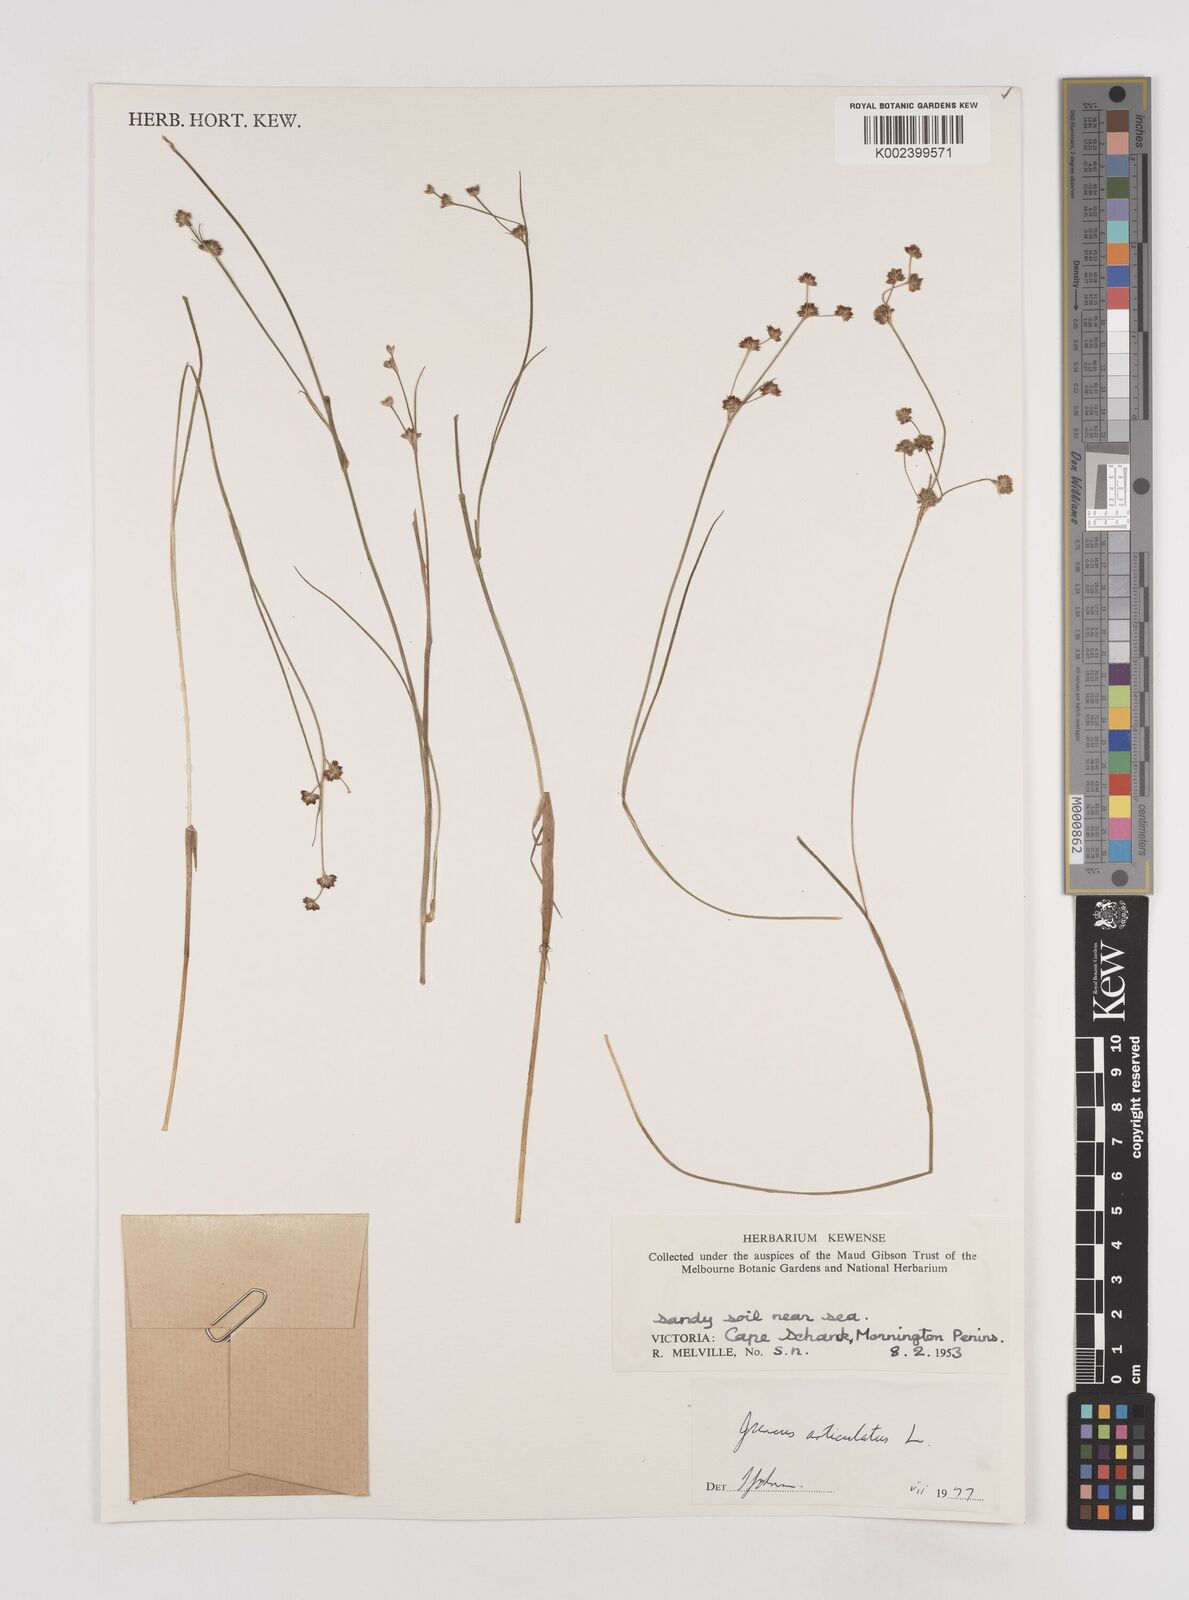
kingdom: Plantae
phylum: Tracheophyta
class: Liliopsida
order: Poales
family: Juncaceae
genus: Juncus
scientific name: Juncus articulatus
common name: Jointed rush
